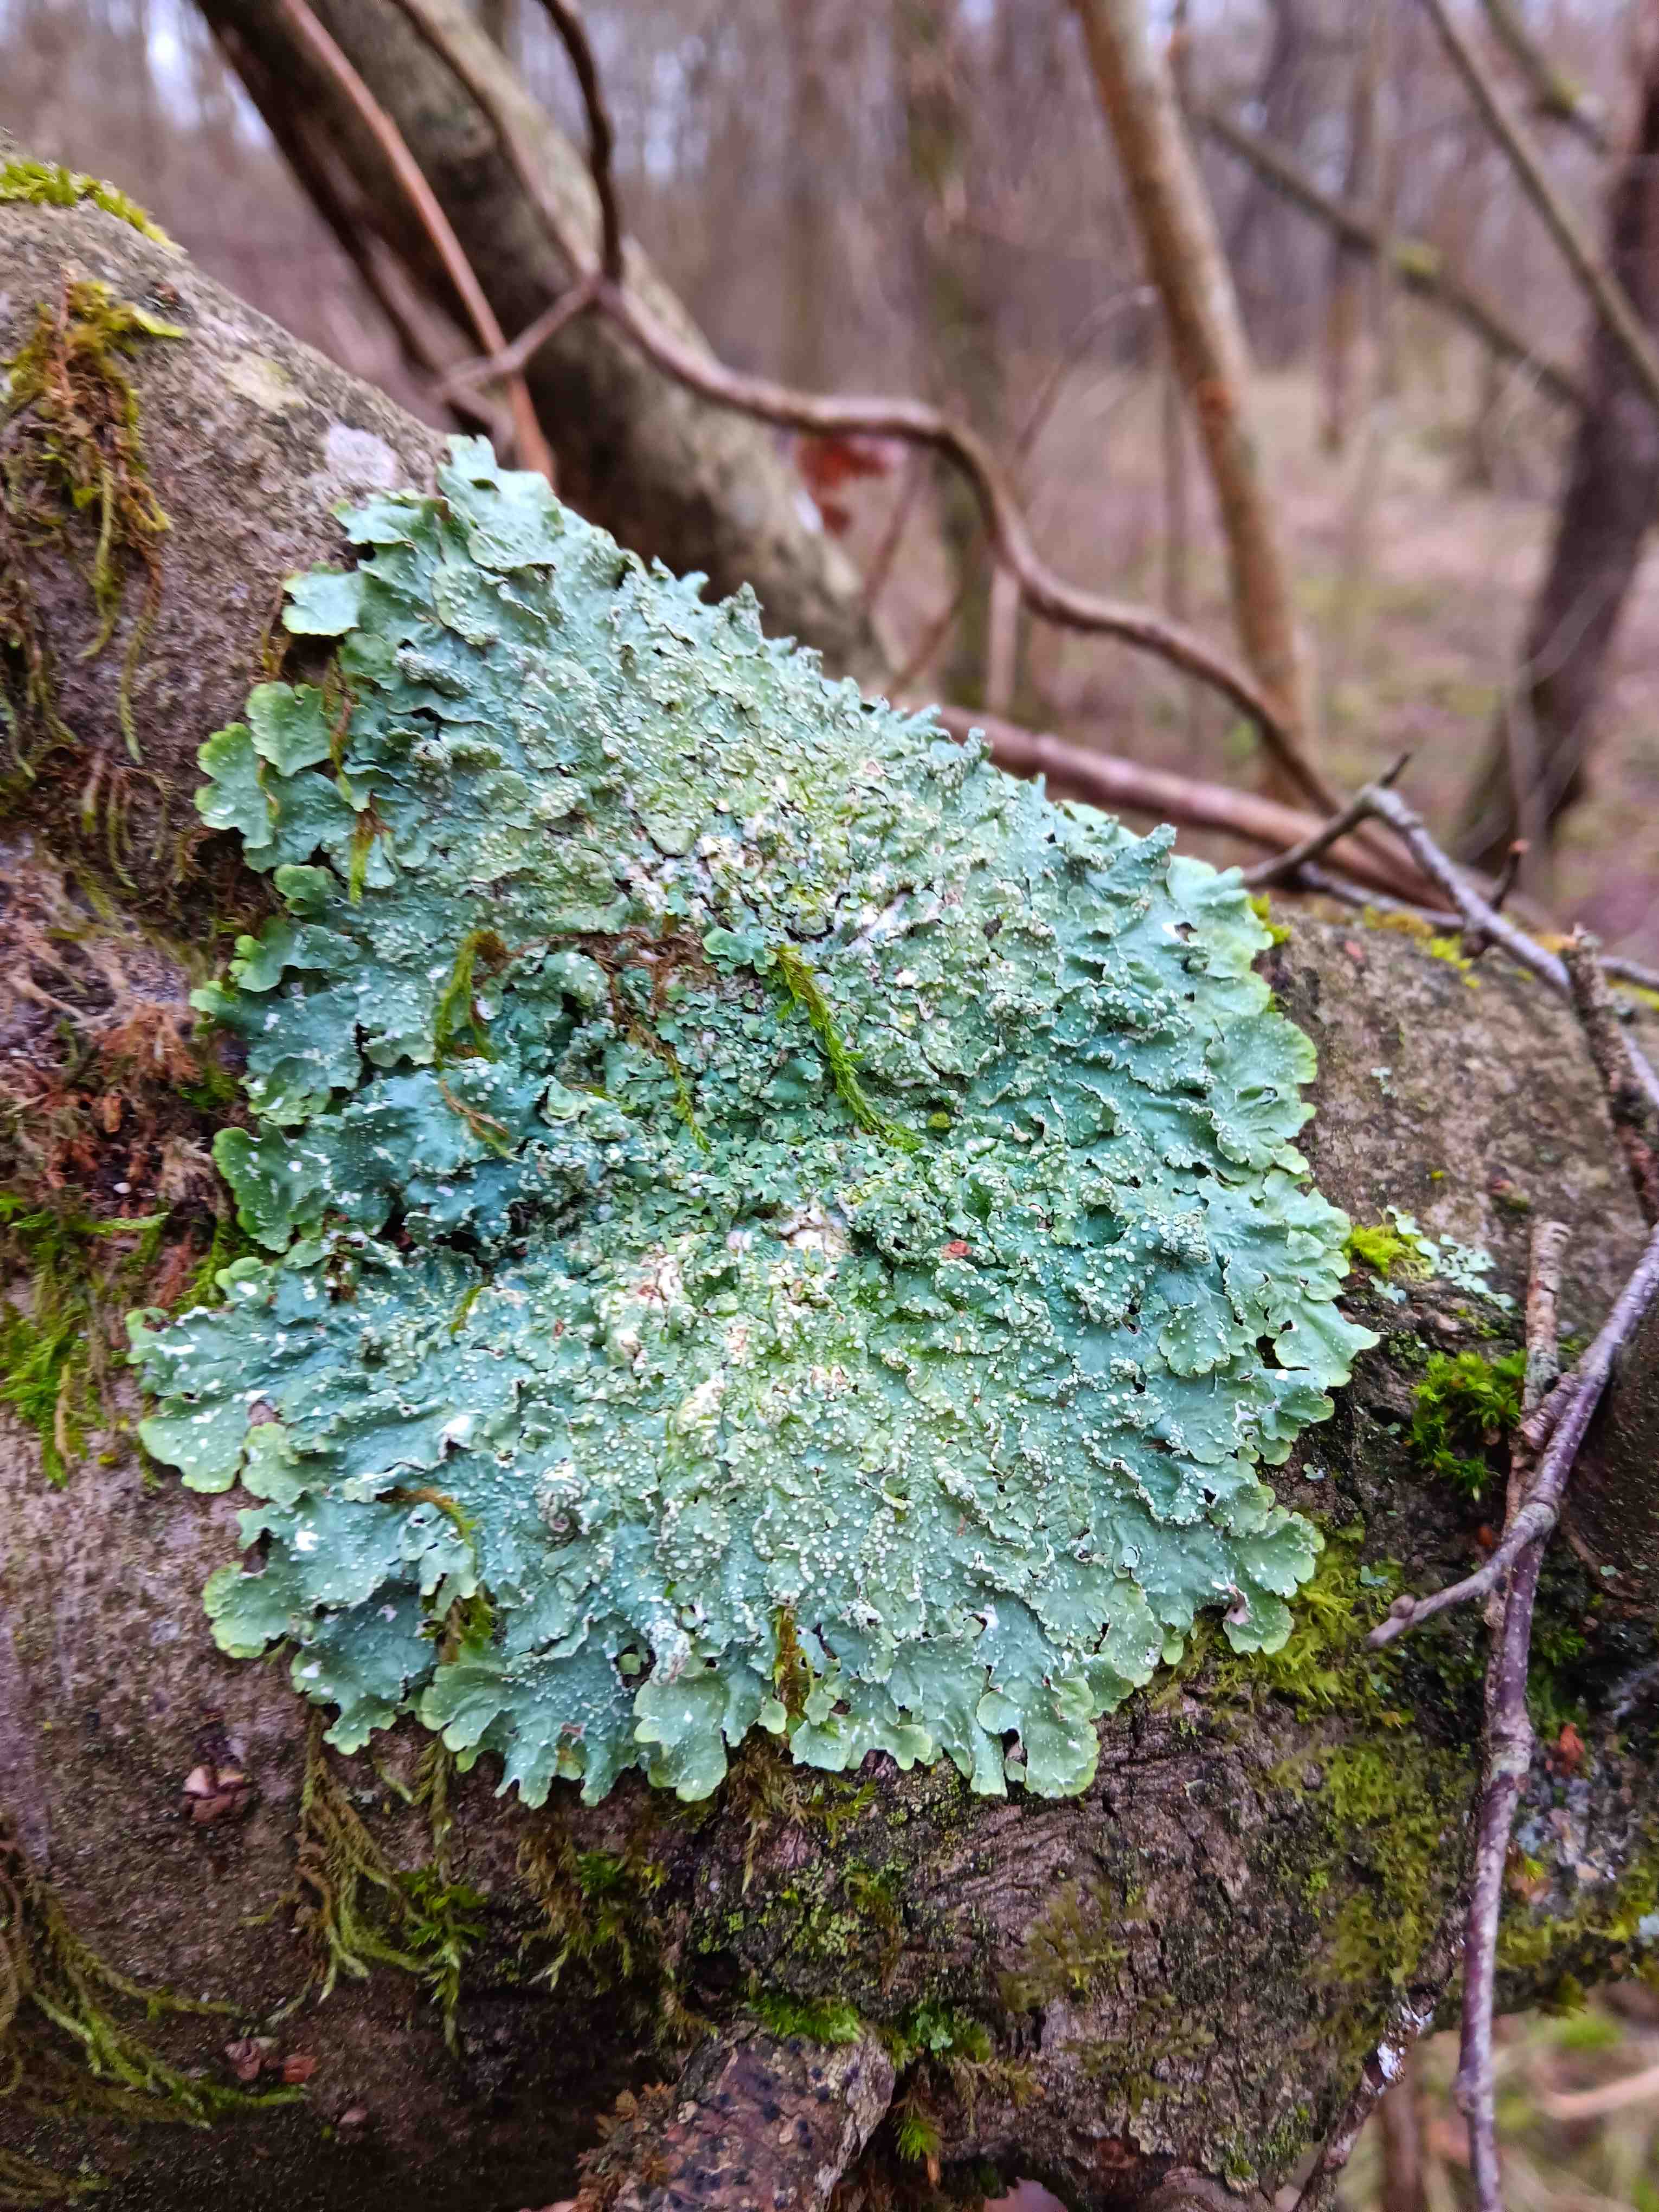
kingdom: Fungi
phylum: Ascomycota
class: Lecanoromycetes
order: Lecanorales
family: Parmeliaceae
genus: Punctelia
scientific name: Punctelia
